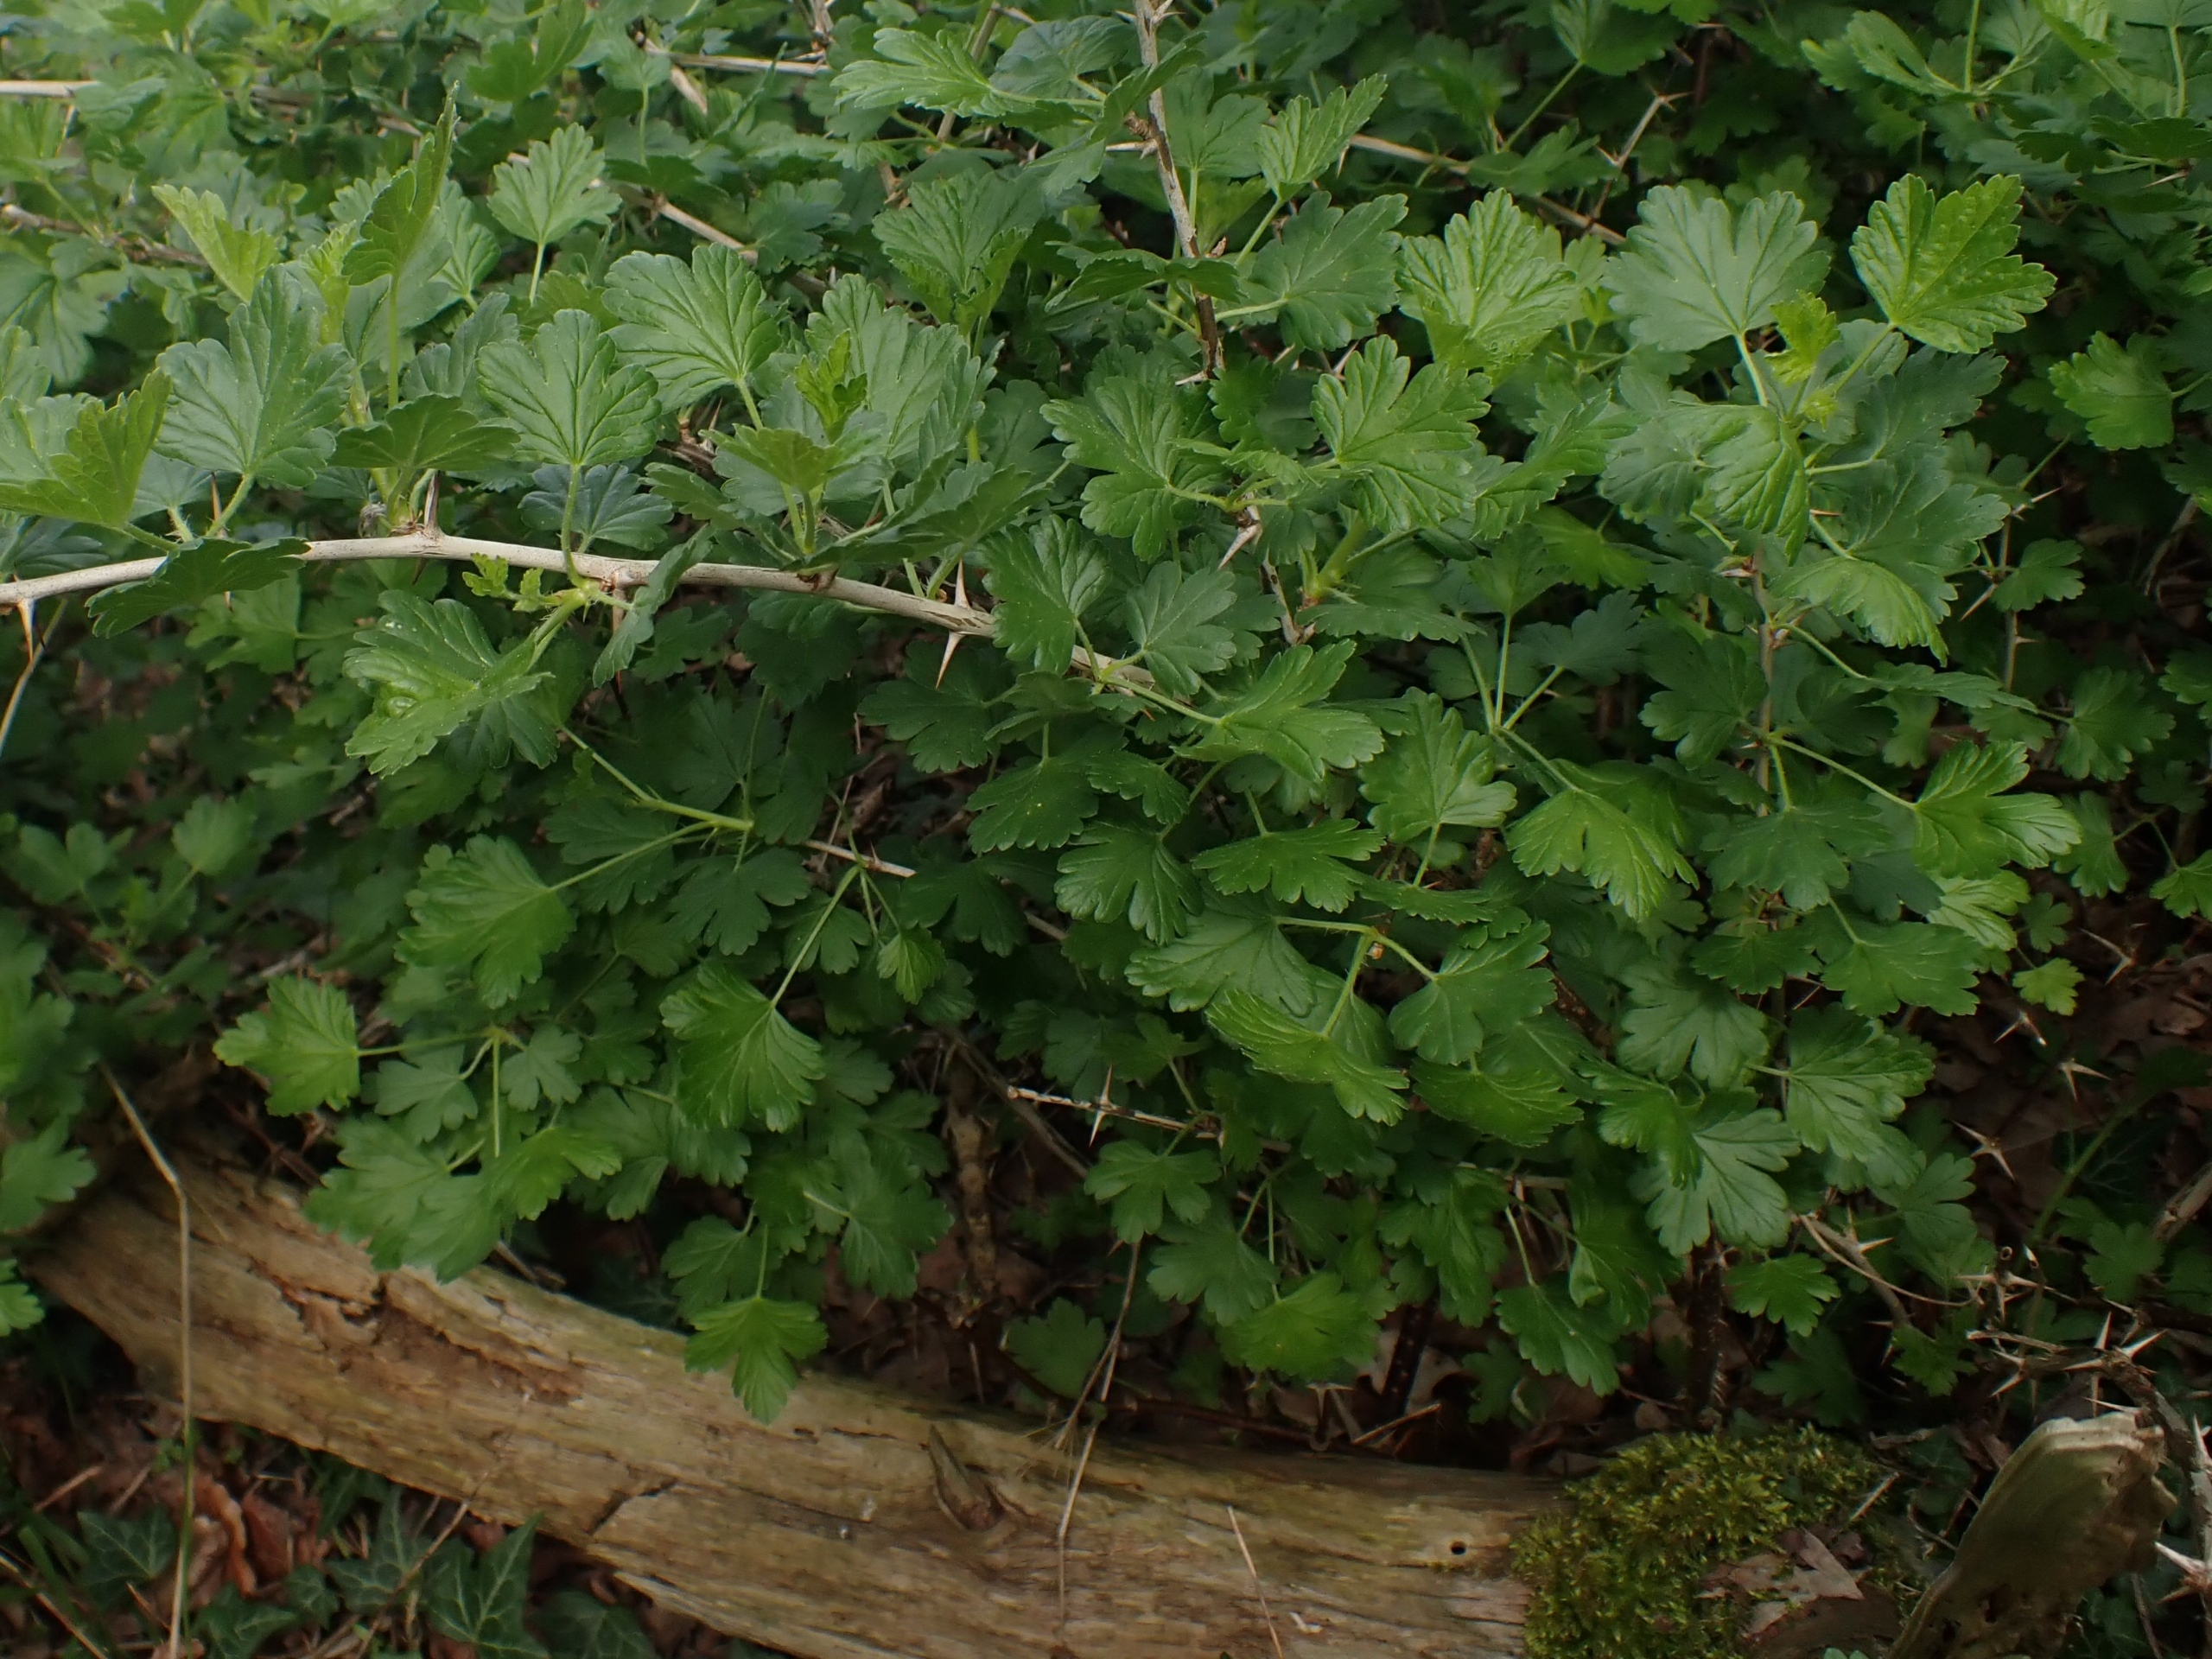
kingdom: Plantae
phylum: Tracheophyta
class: Magnoliopsida
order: Saxifragales
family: Grossulariaceae
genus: Ribes
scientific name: Ribes uva-crispa
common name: Stikkelsbær
